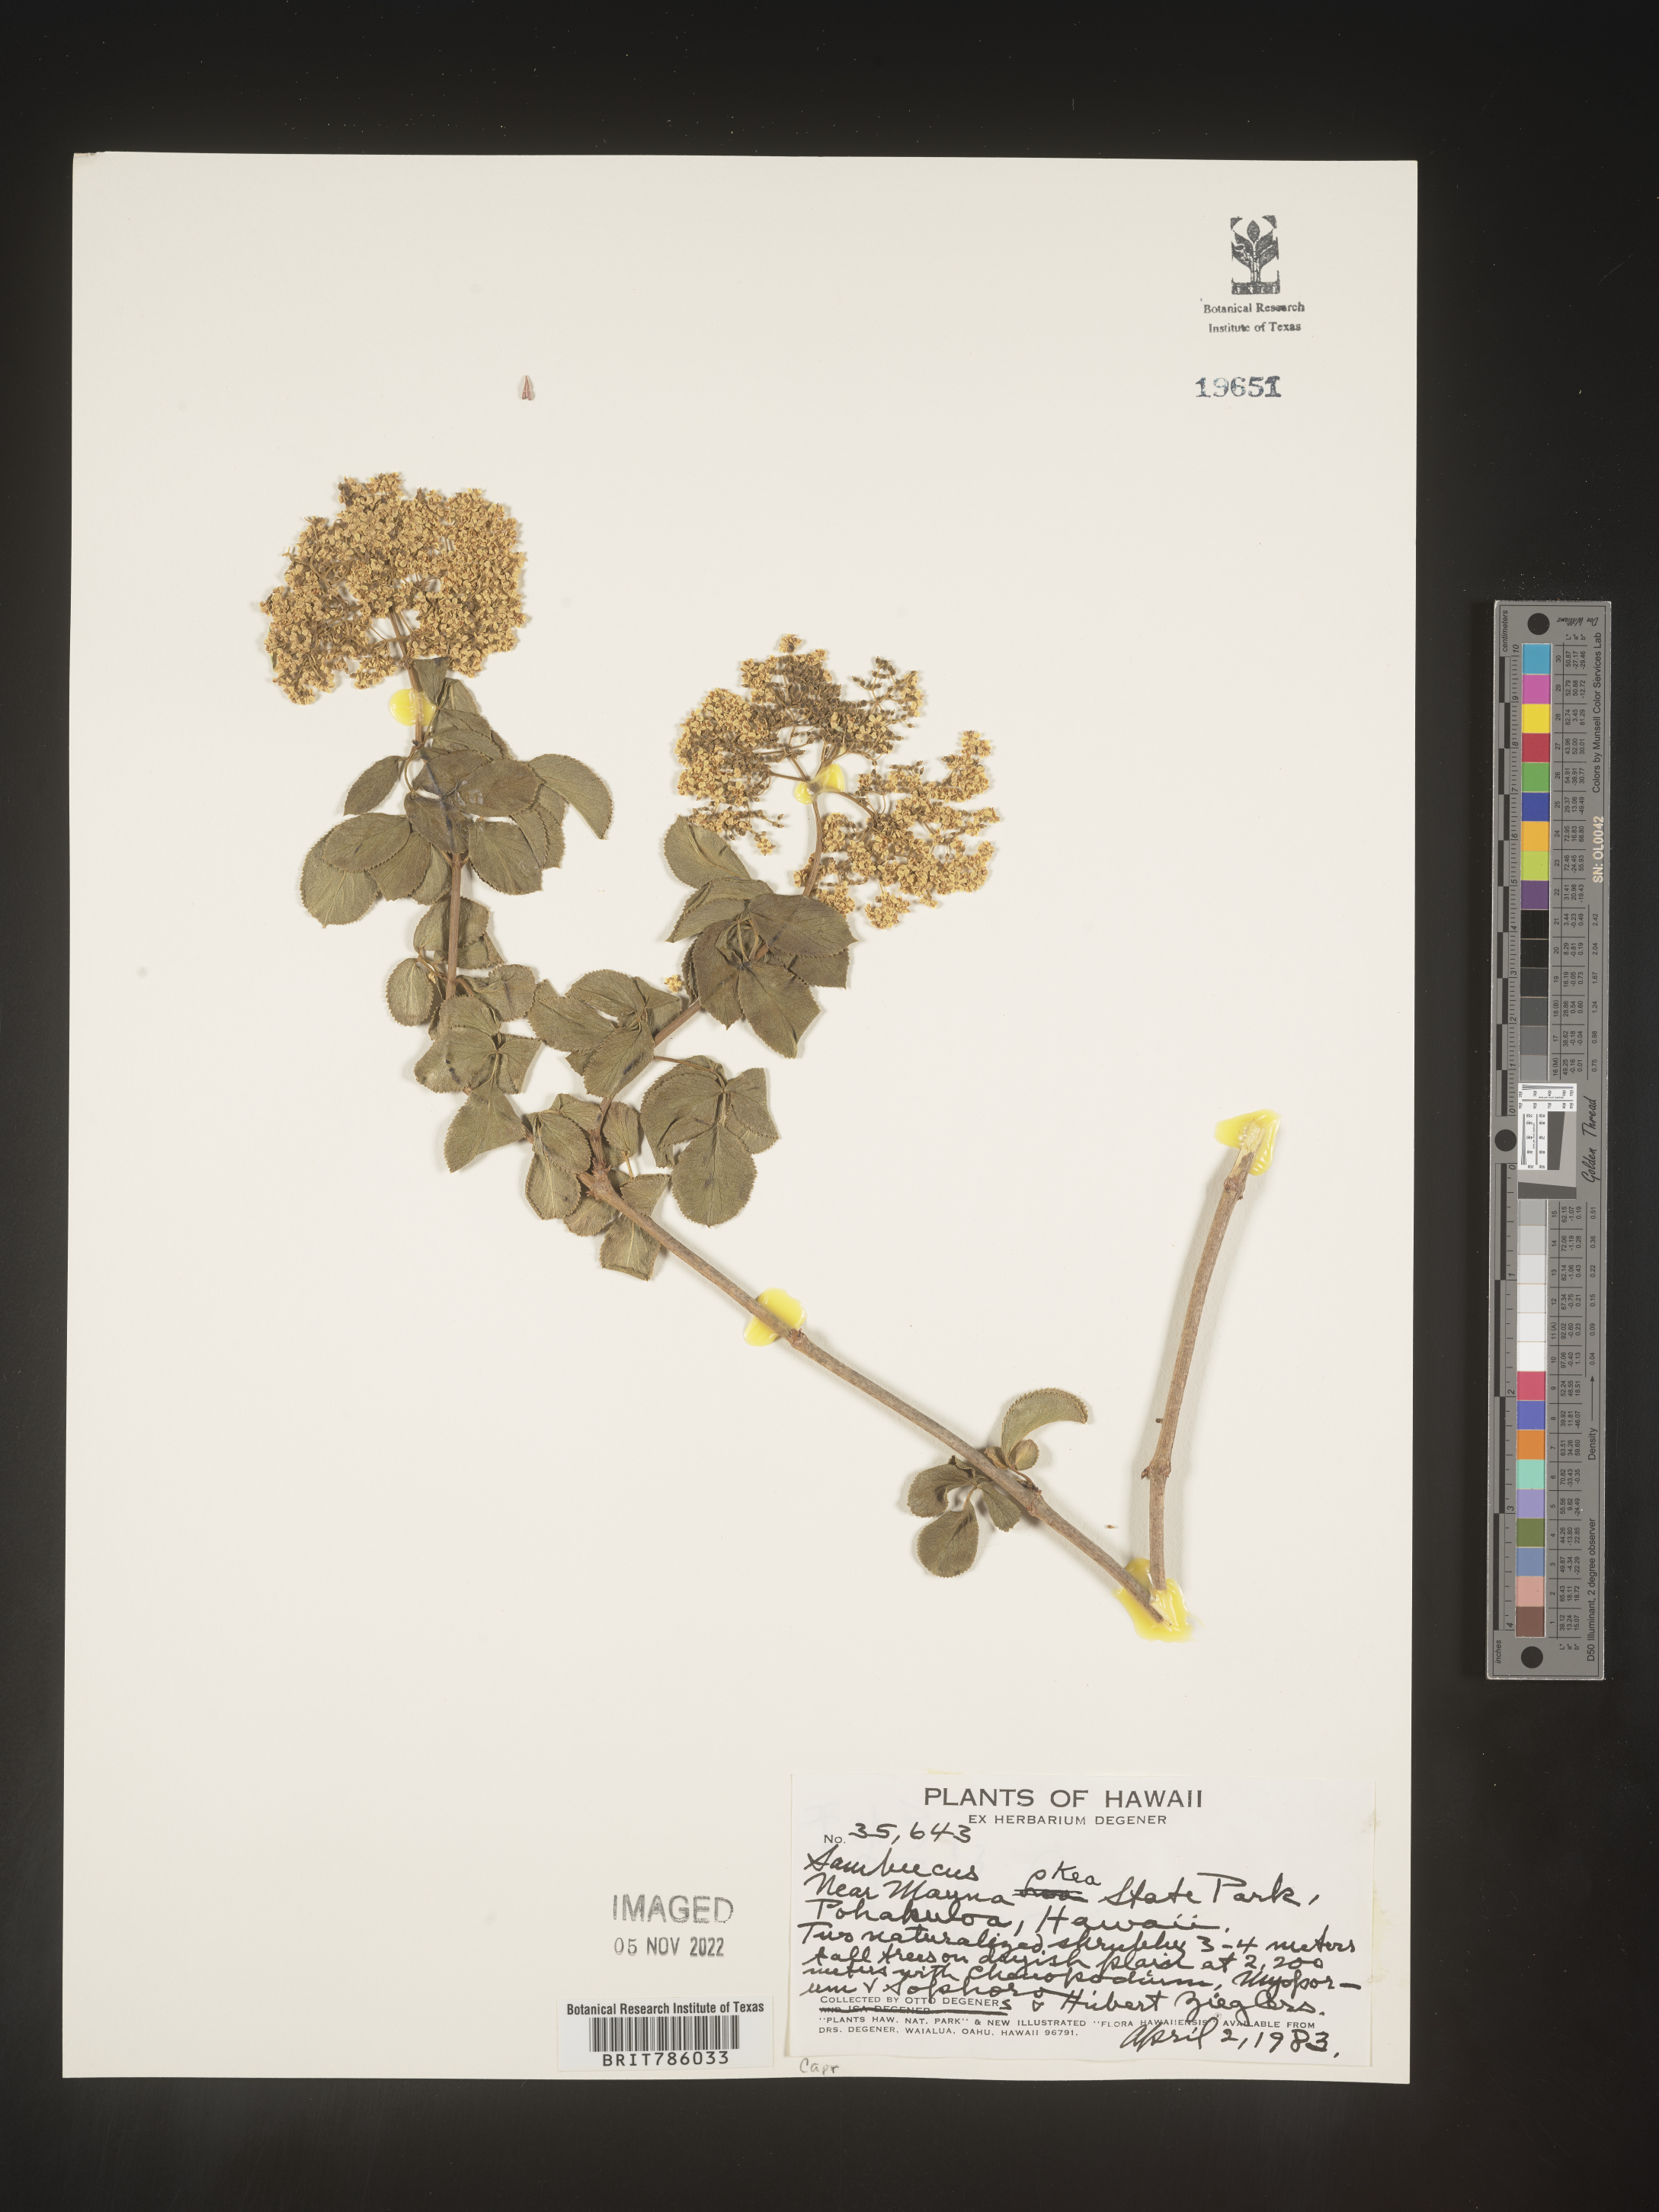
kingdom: Plantae
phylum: Tracheophyta
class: Magnoliopsida
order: Dipsacales
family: Viburnaceae
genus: Sambucus
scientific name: Sambucus
